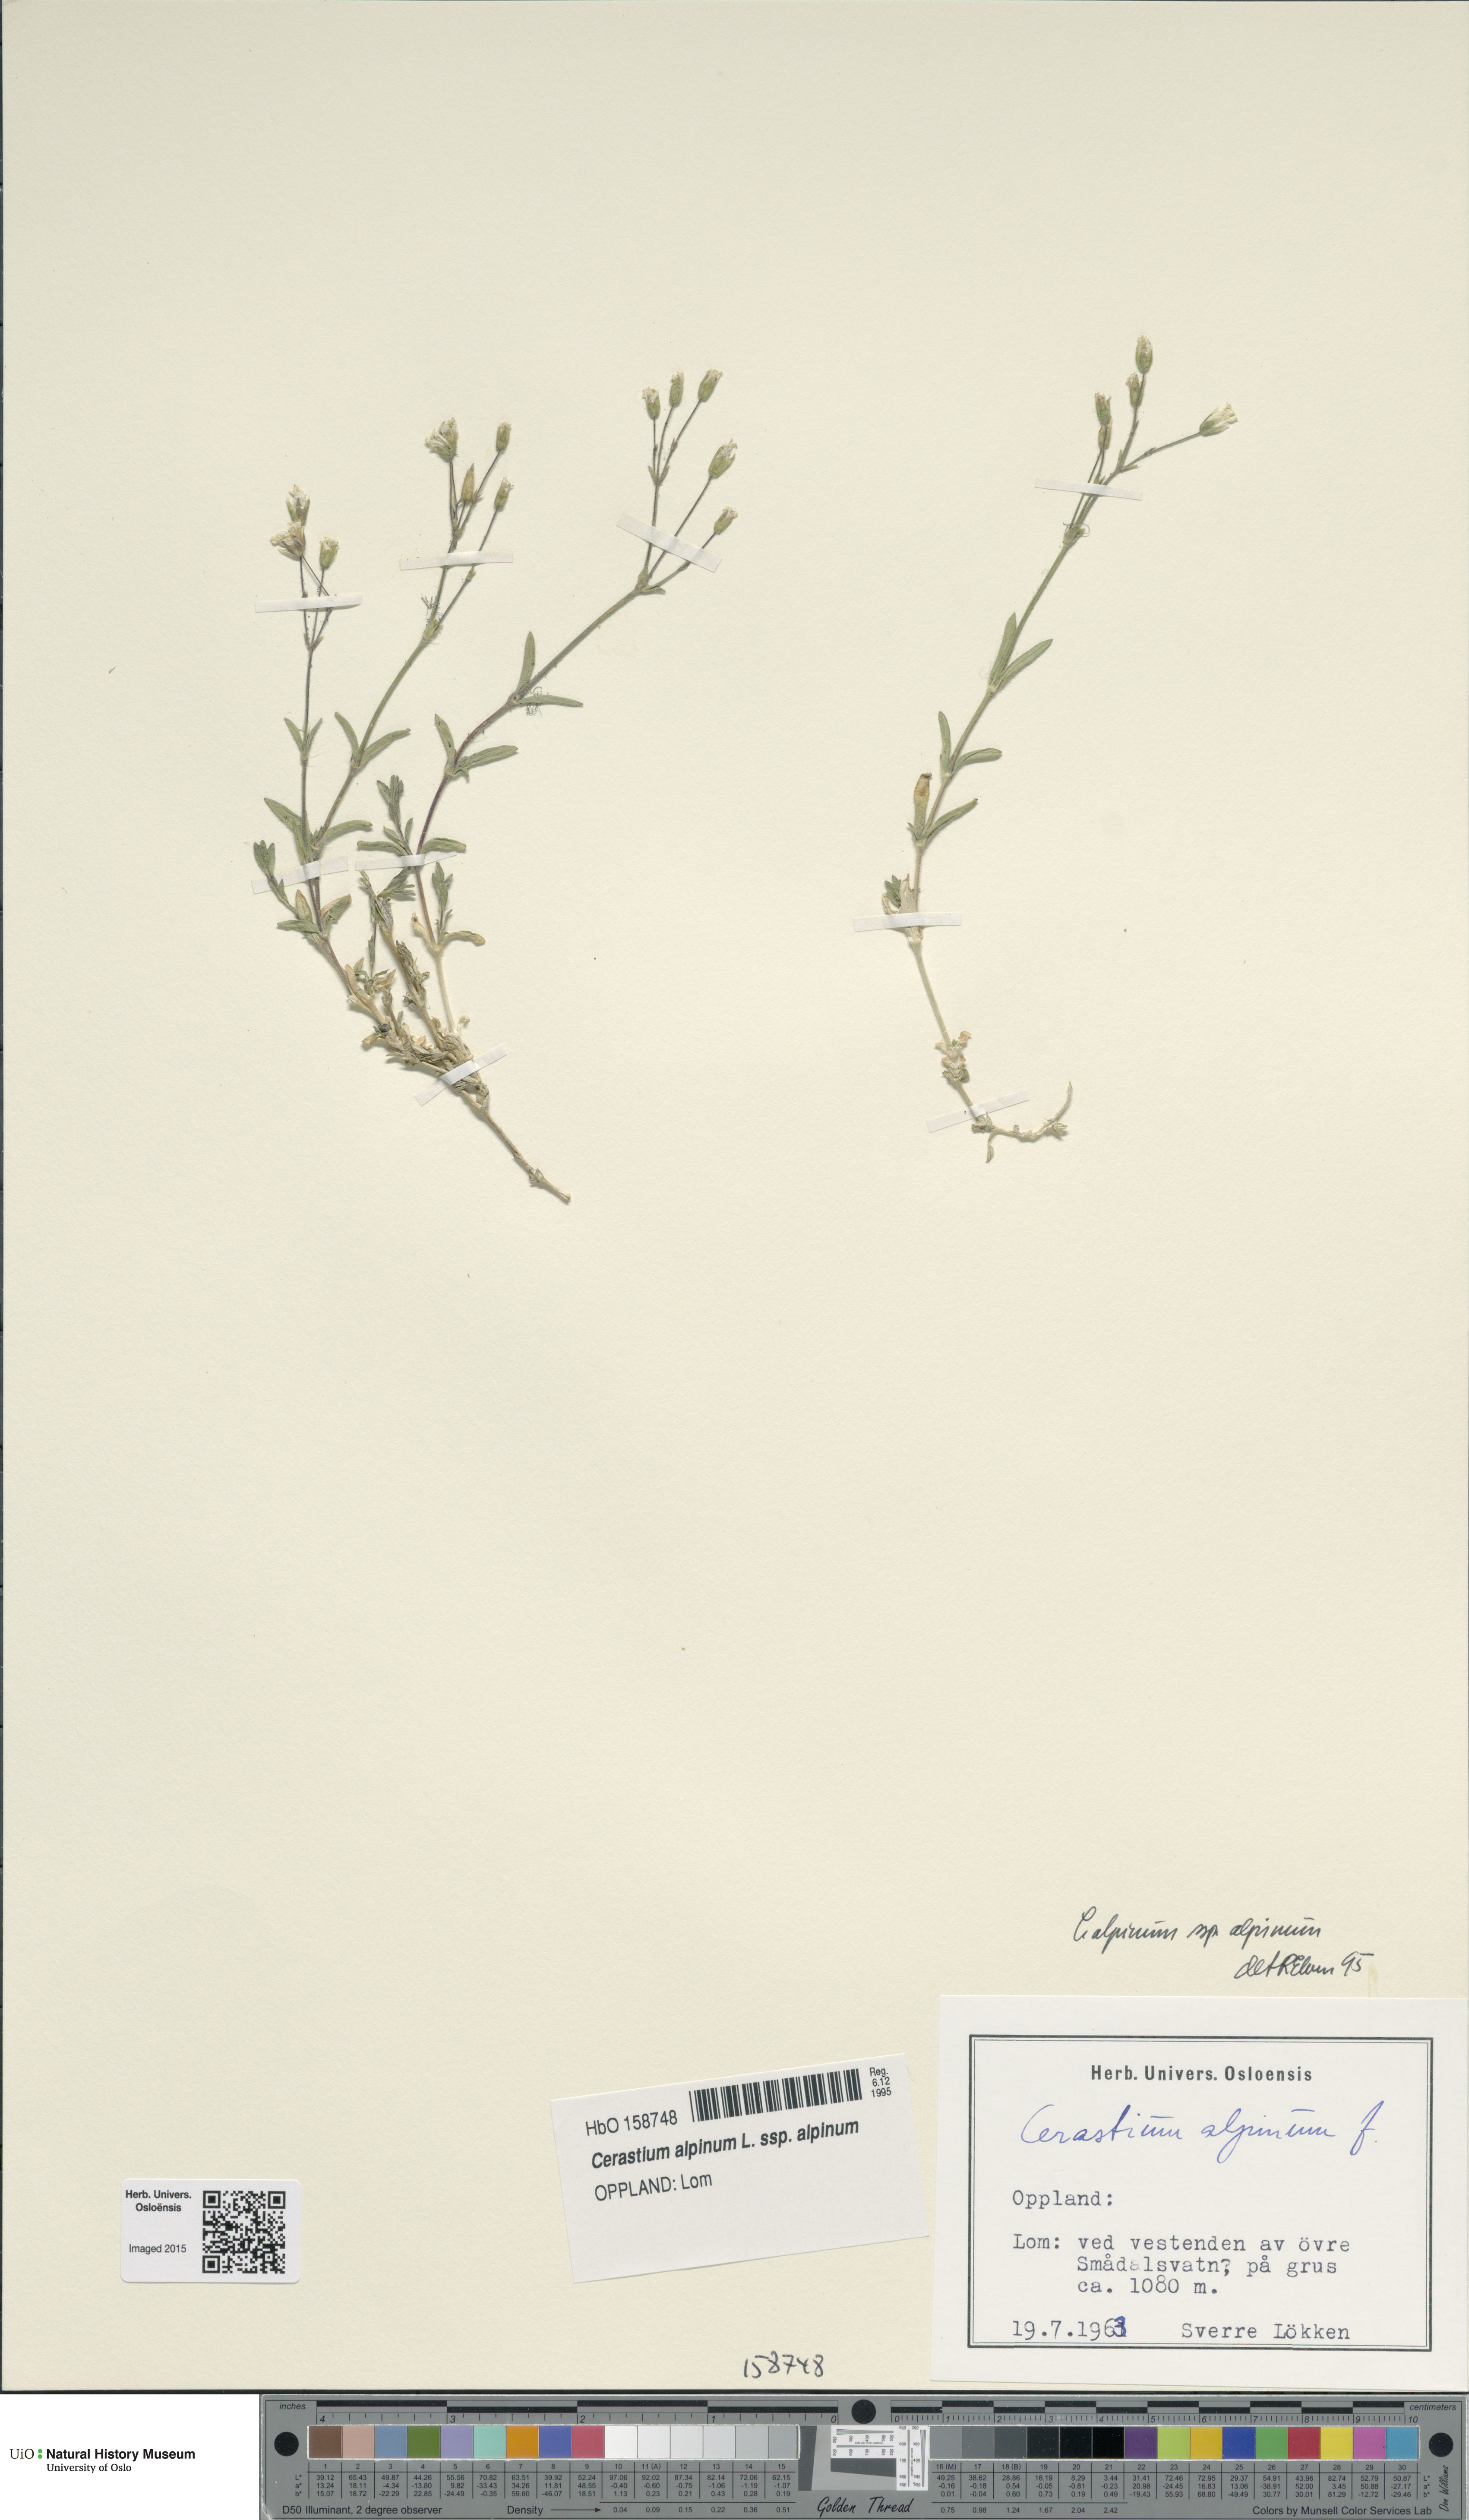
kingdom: Plantae
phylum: Tracheophyta
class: Magnoliopsida
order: Caryophyllales
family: Caryophyllaceae
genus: Cerastium
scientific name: Cerastium alpinum
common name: Alpine mouse-ear
